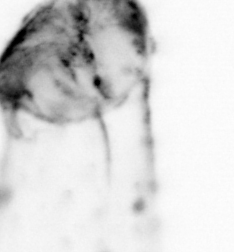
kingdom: Animalia
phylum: Chaetognatha
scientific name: Chaetognatha
